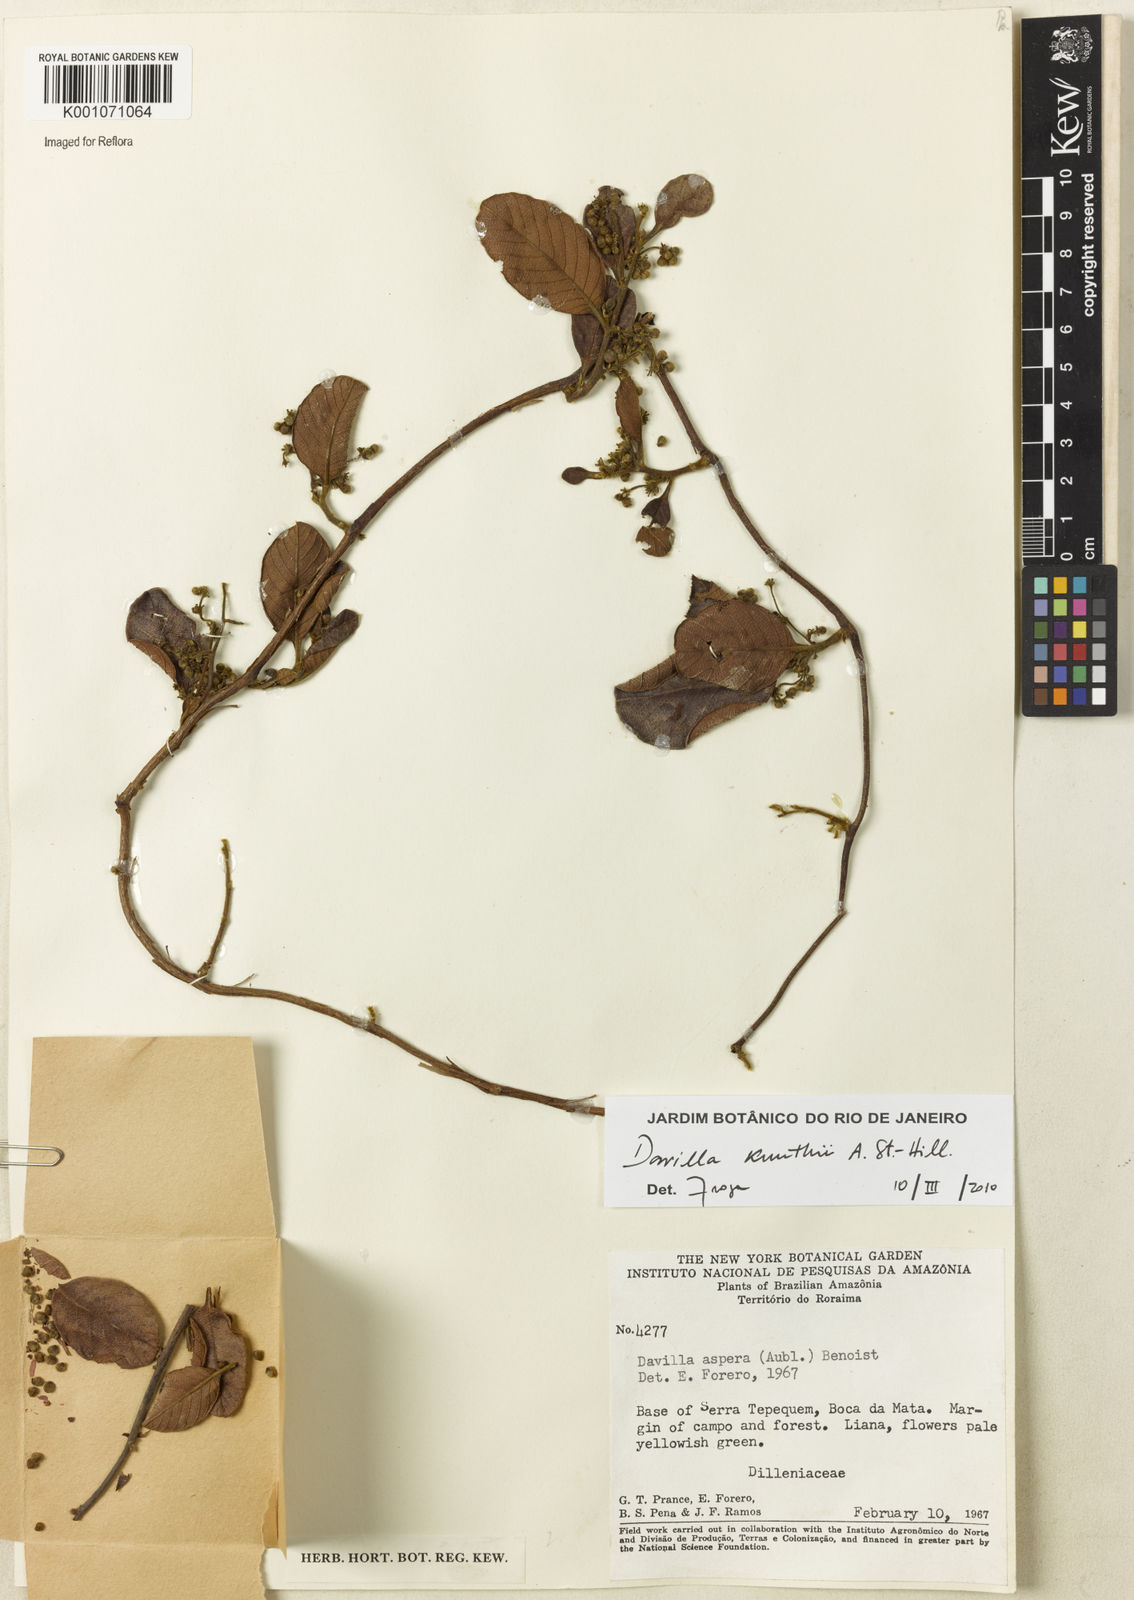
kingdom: Plantae
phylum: Tracheophyta
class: Magnoliopsida
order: Dilleniales
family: Dilleniaceae
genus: Davilla
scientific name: Davilla kunthii
